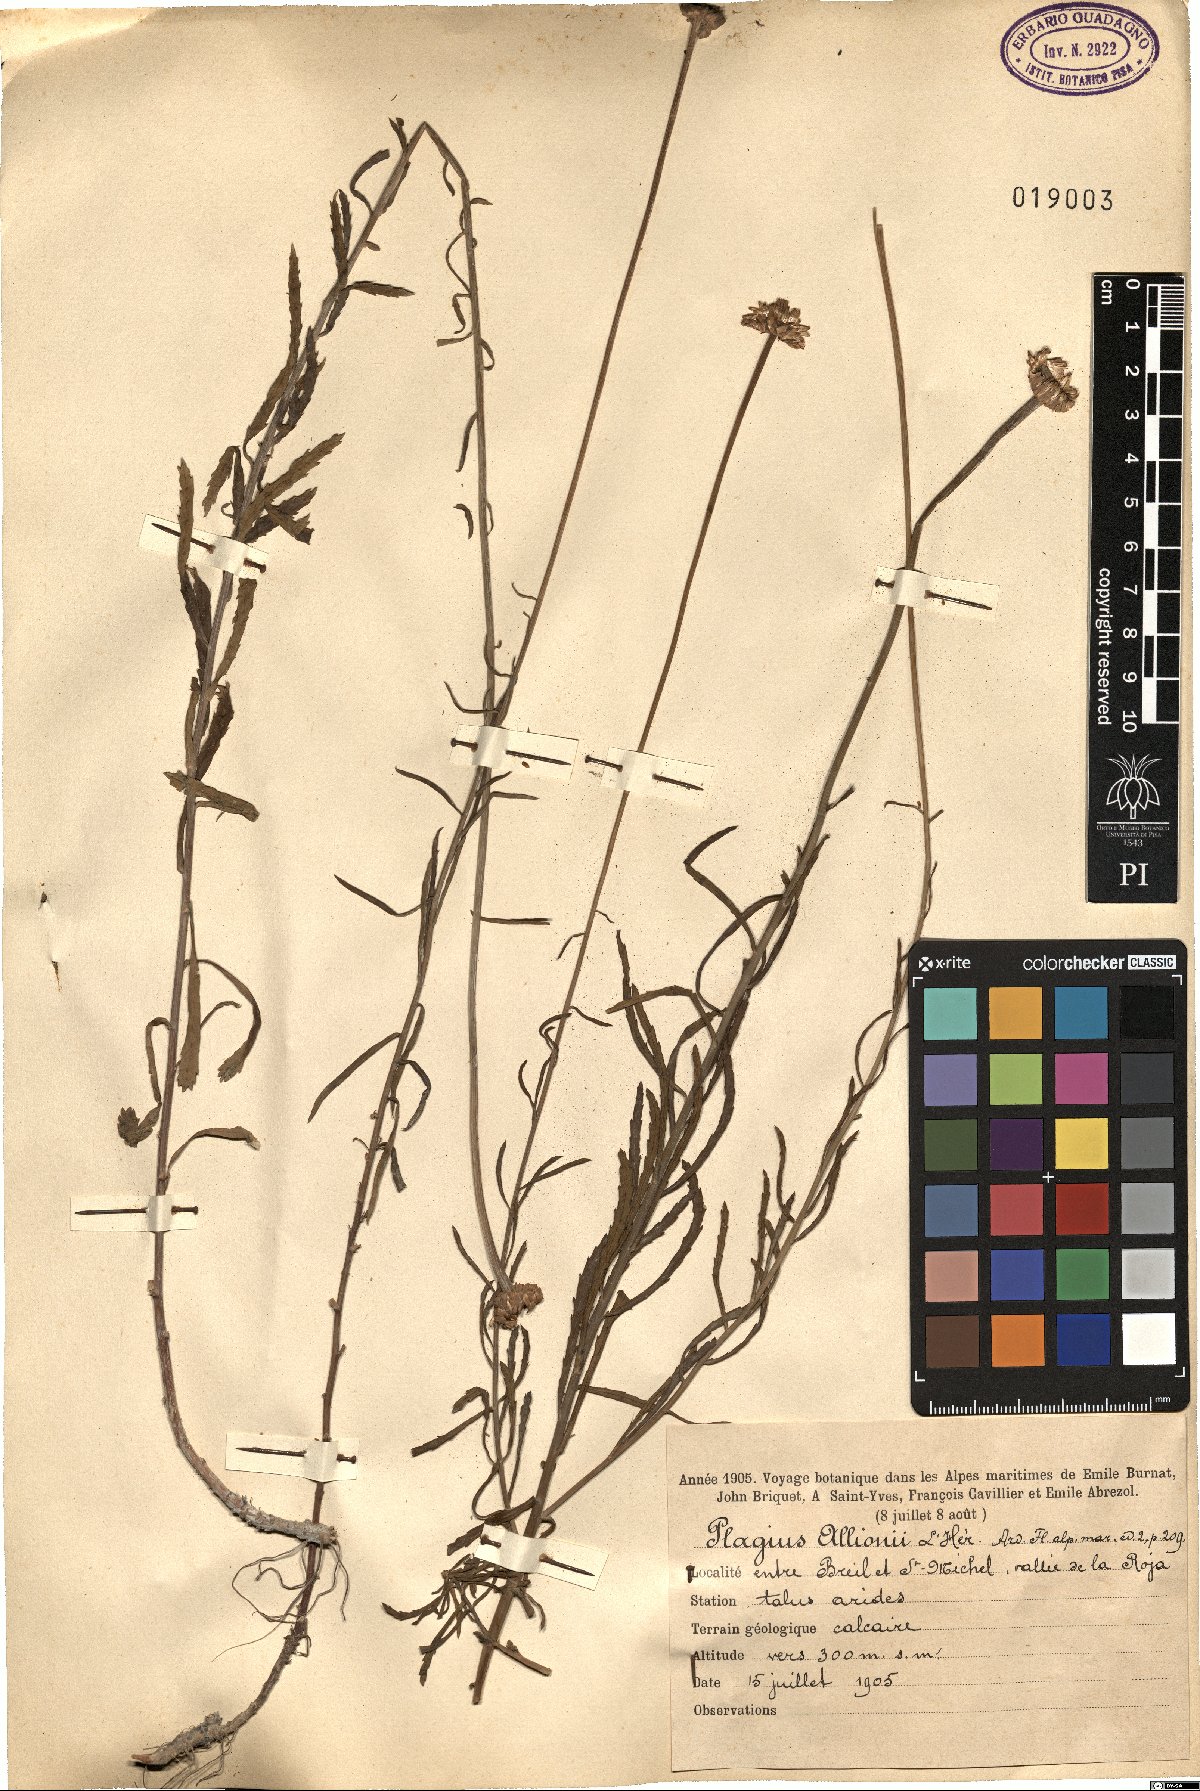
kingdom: Plantae
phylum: Tracheophyta
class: Magnoliopsida
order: Asterales
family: Asteraceae
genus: Plagius
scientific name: Plagius flosculosus
